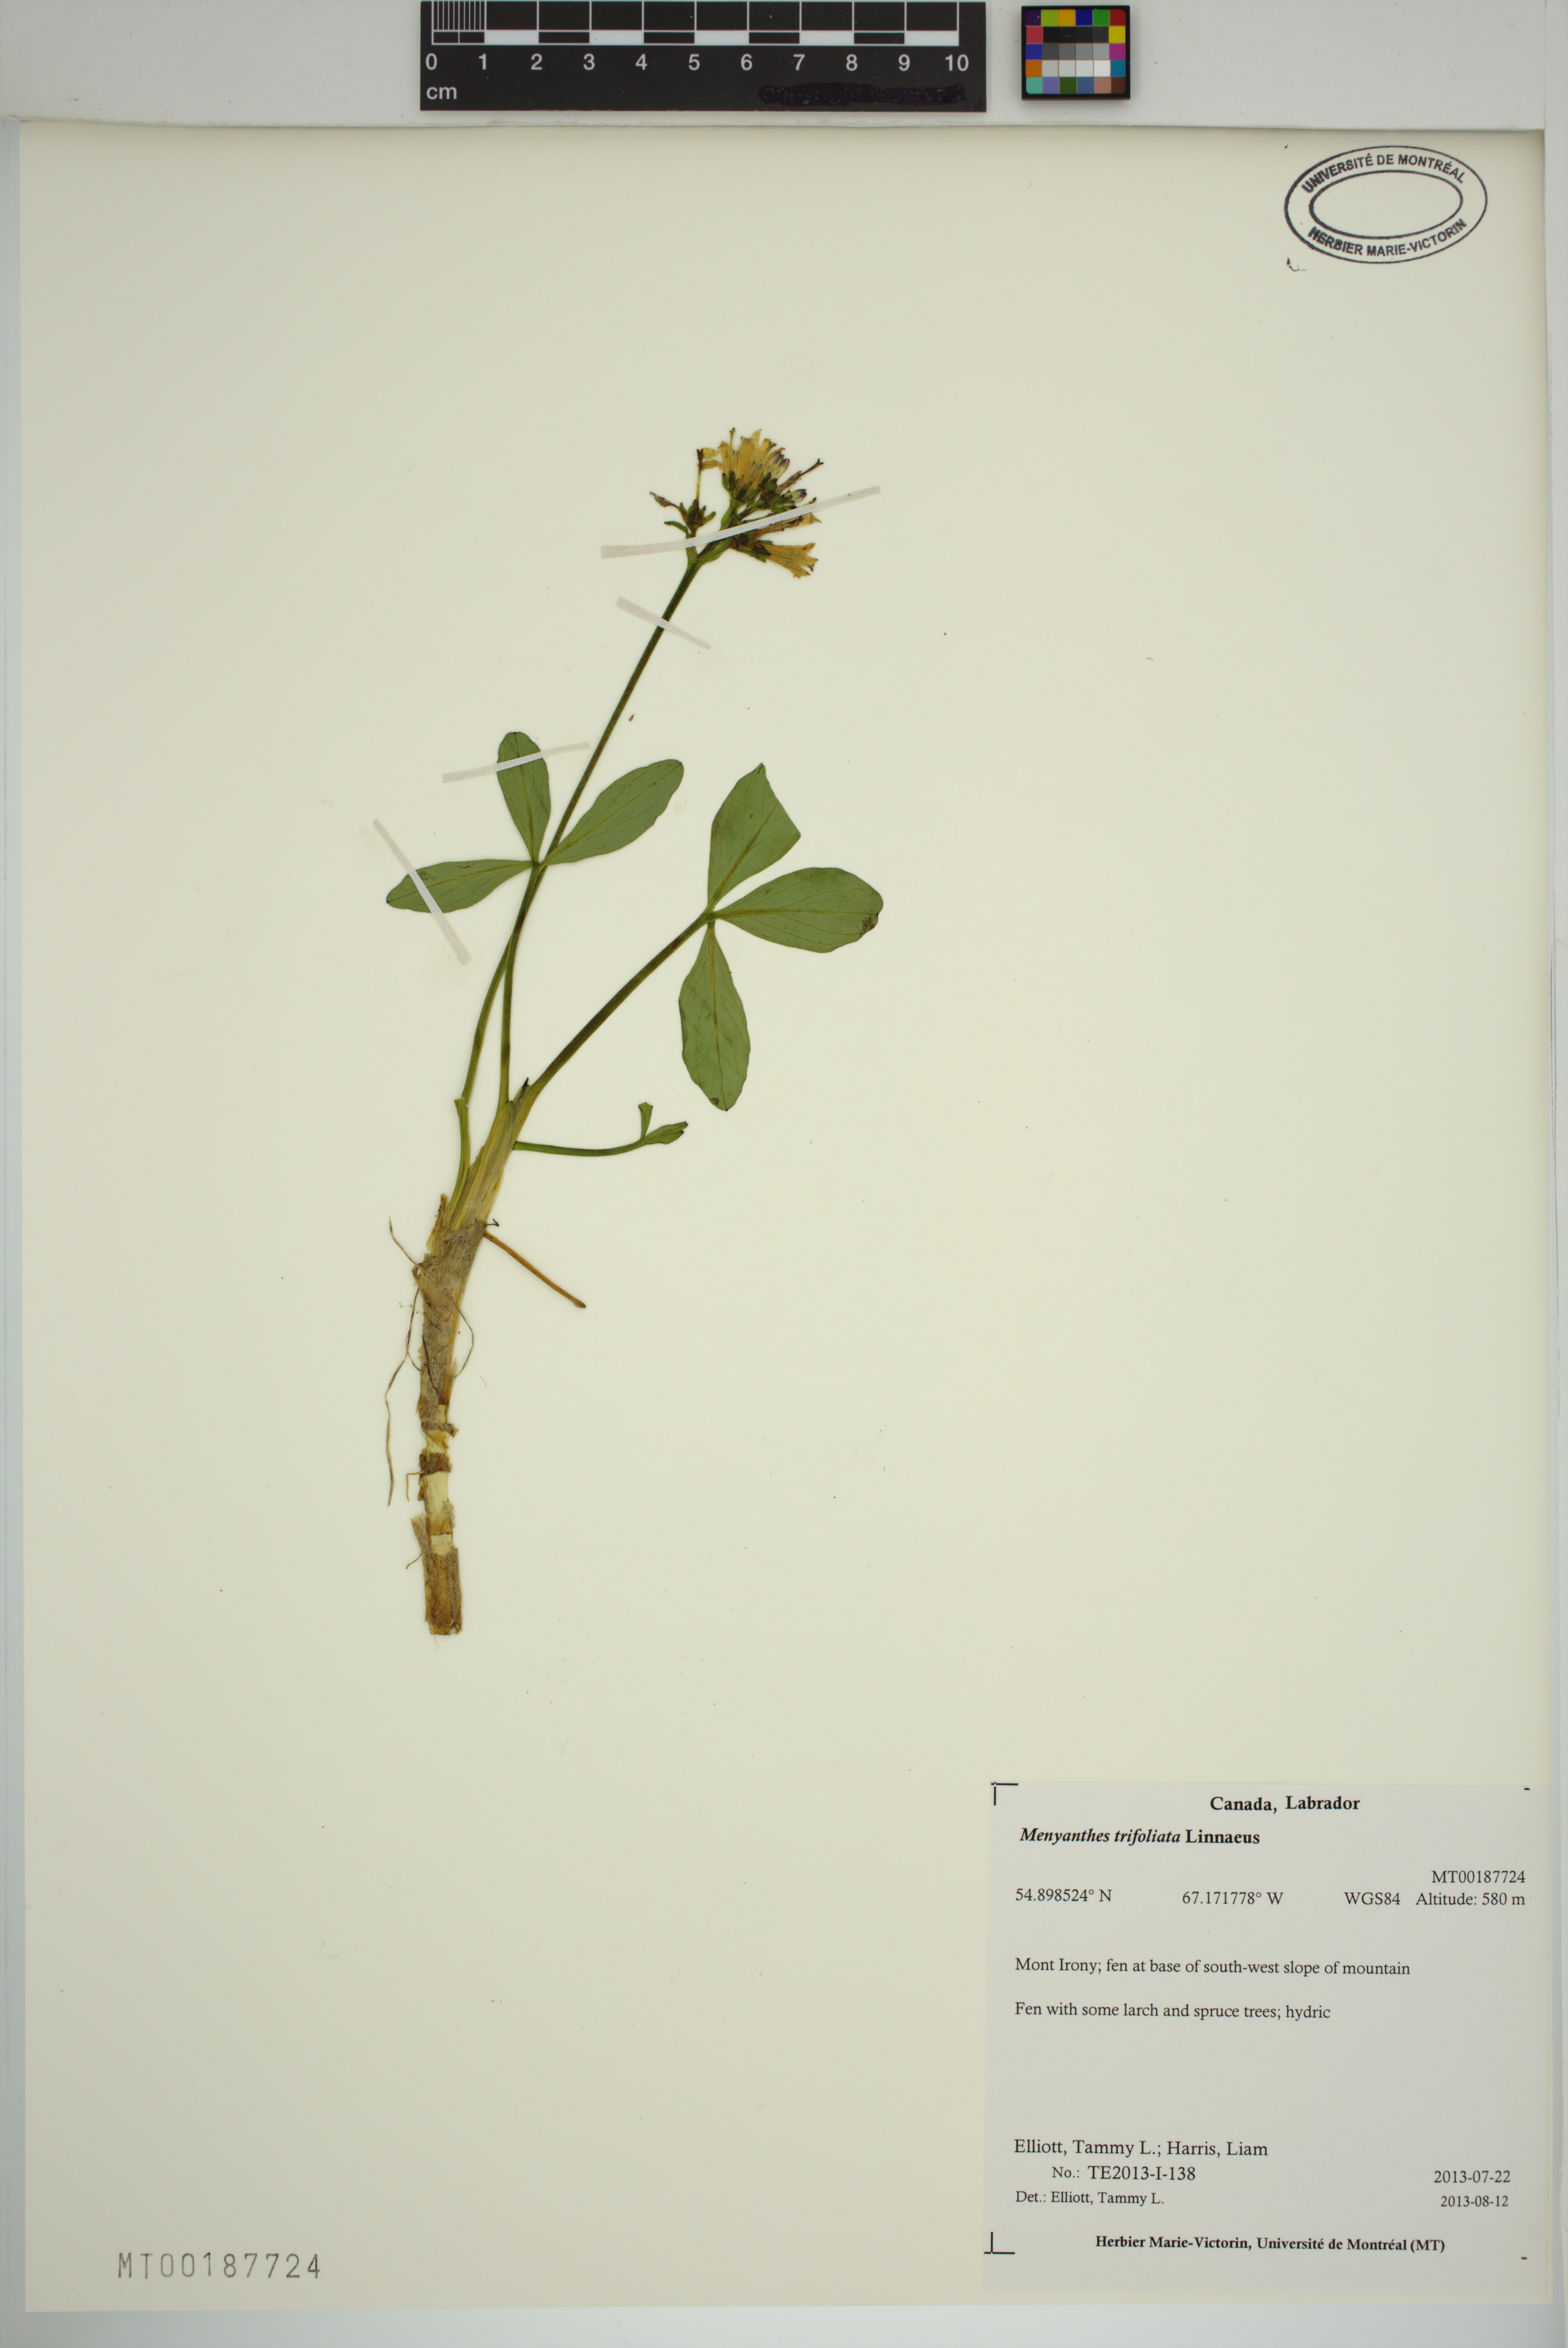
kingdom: Plantae
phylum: Tracheophyta
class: Magnoliopsida
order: Asterales
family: Menyanthaceae
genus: Menyanthes
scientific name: Menyanthes trifoliata
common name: Bogbean
